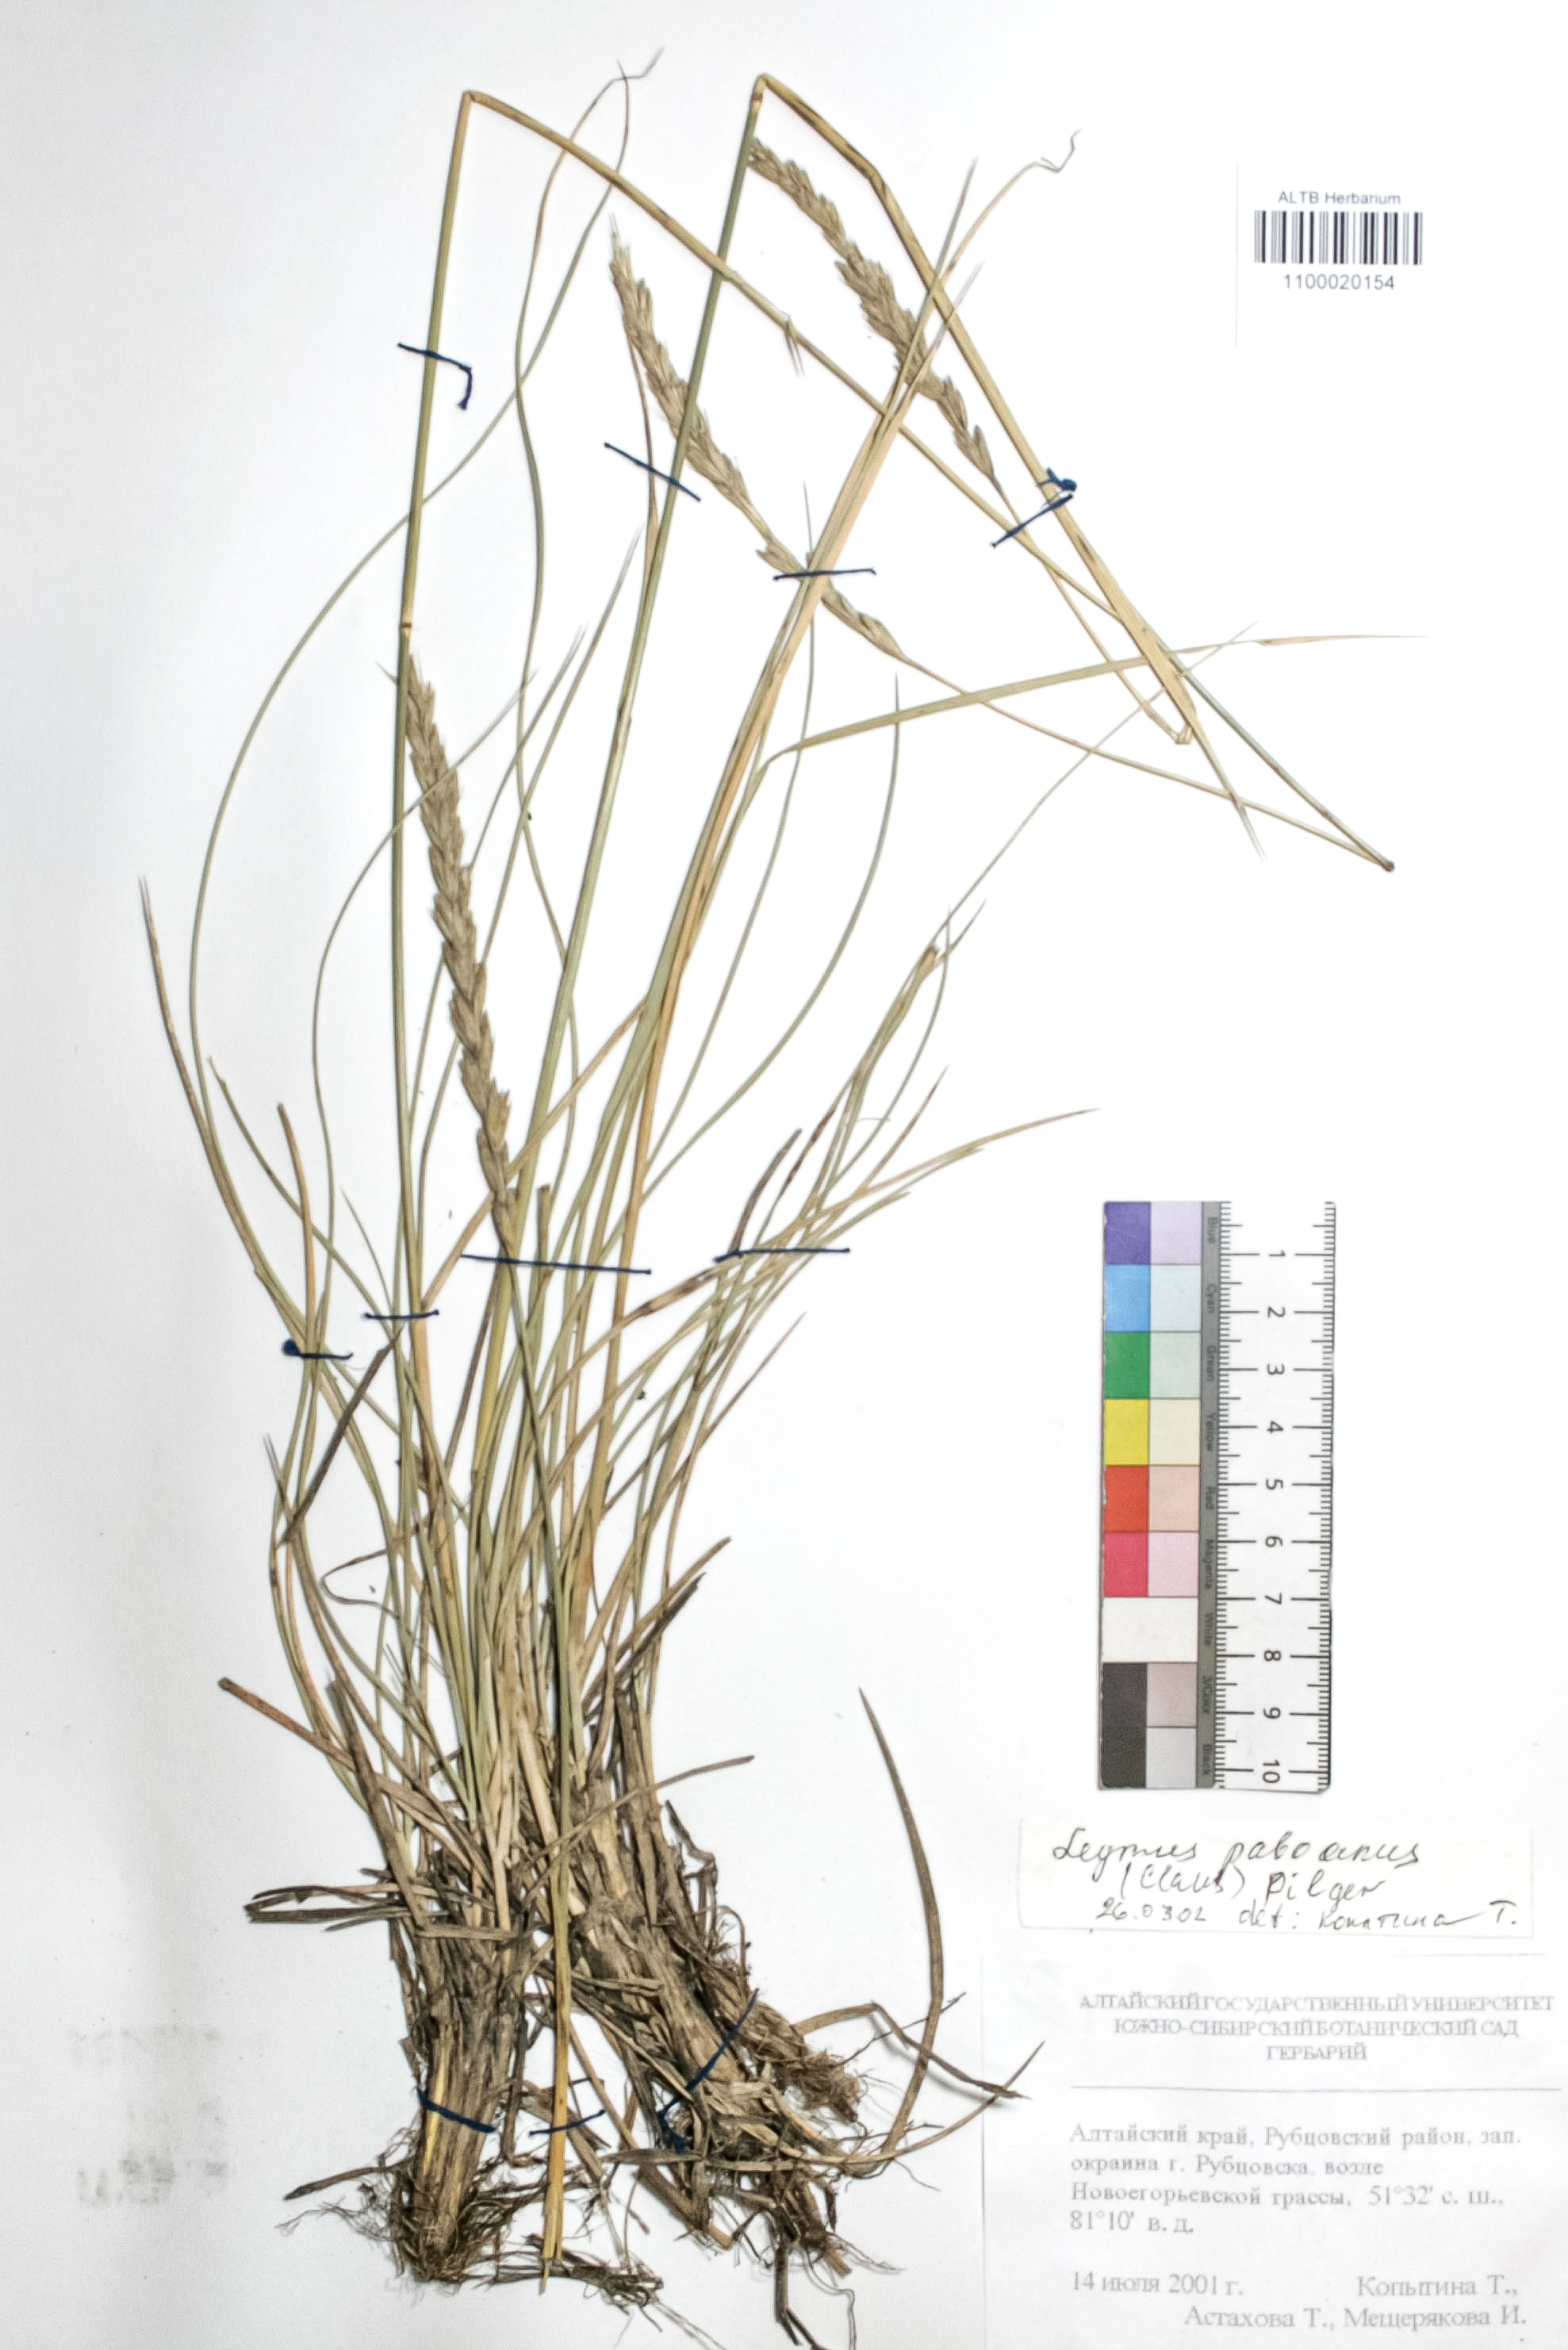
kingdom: Plantae
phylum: Tracheophyta
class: Liliopsida
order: Poales
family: Poaceae
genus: Leymus
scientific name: Leymus paboanus
